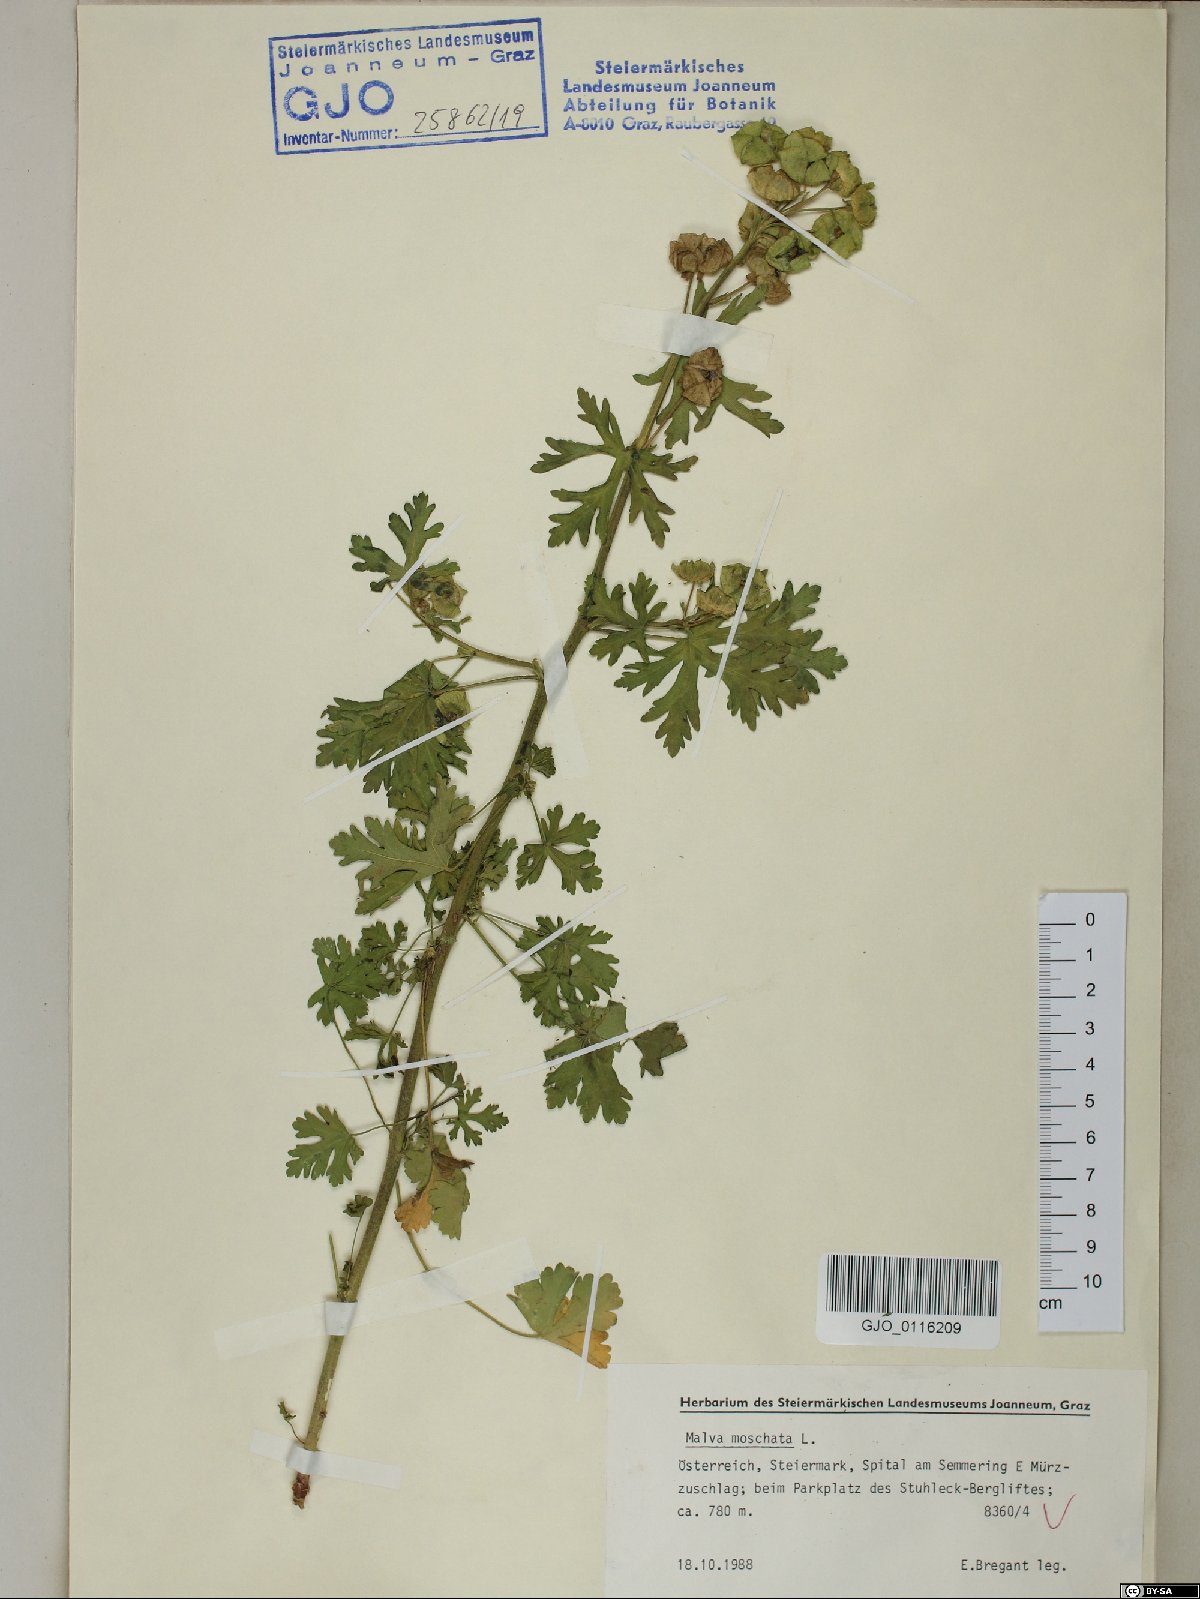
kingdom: Plantae
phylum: Tracheophyta
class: Magnoliopsida
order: Malvales
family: Malvaceae
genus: Malva
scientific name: Malva moschata
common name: Musk mallow
